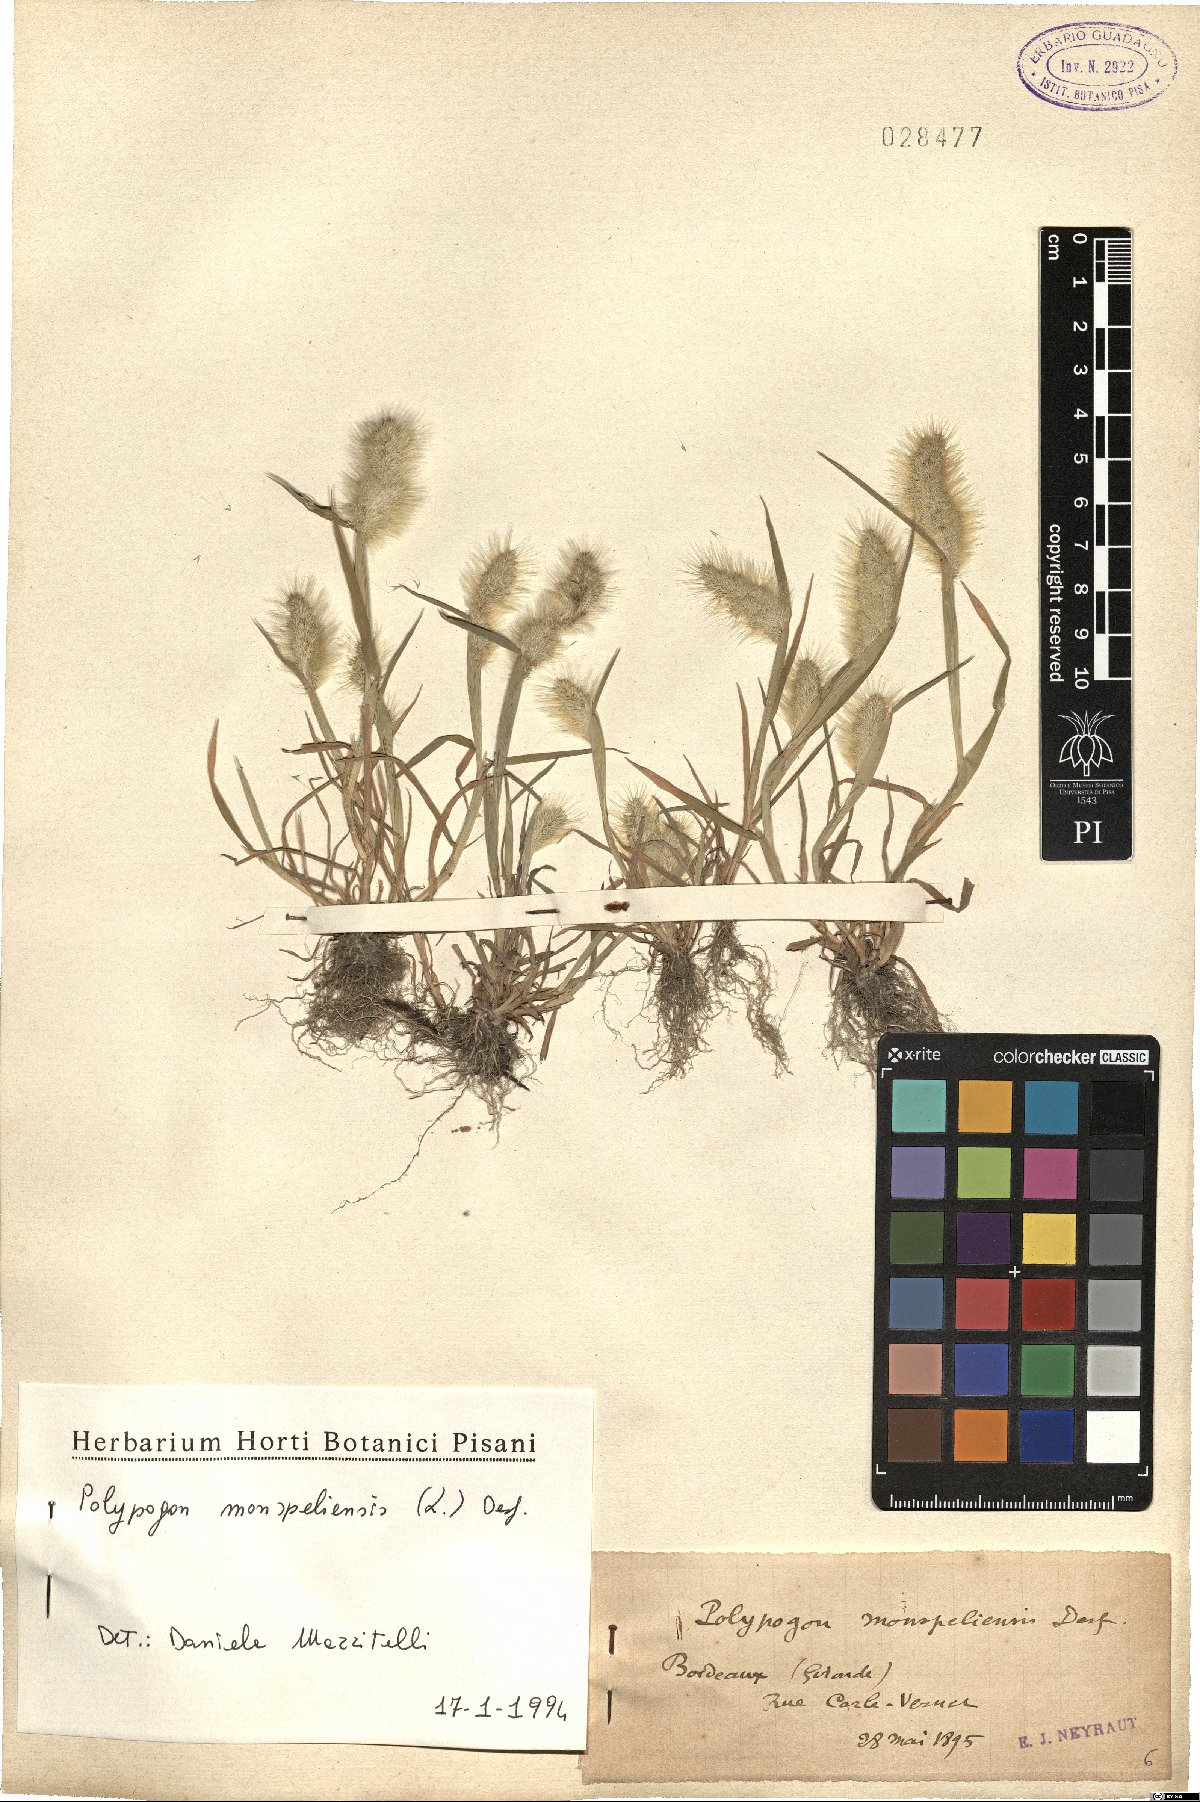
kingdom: Plantae
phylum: Tracheophyta
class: Liliopsida
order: Poales
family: Poaceae
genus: Polypogon
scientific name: Polypogon monspeliensis
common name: Annual rabbitsfoot grass
